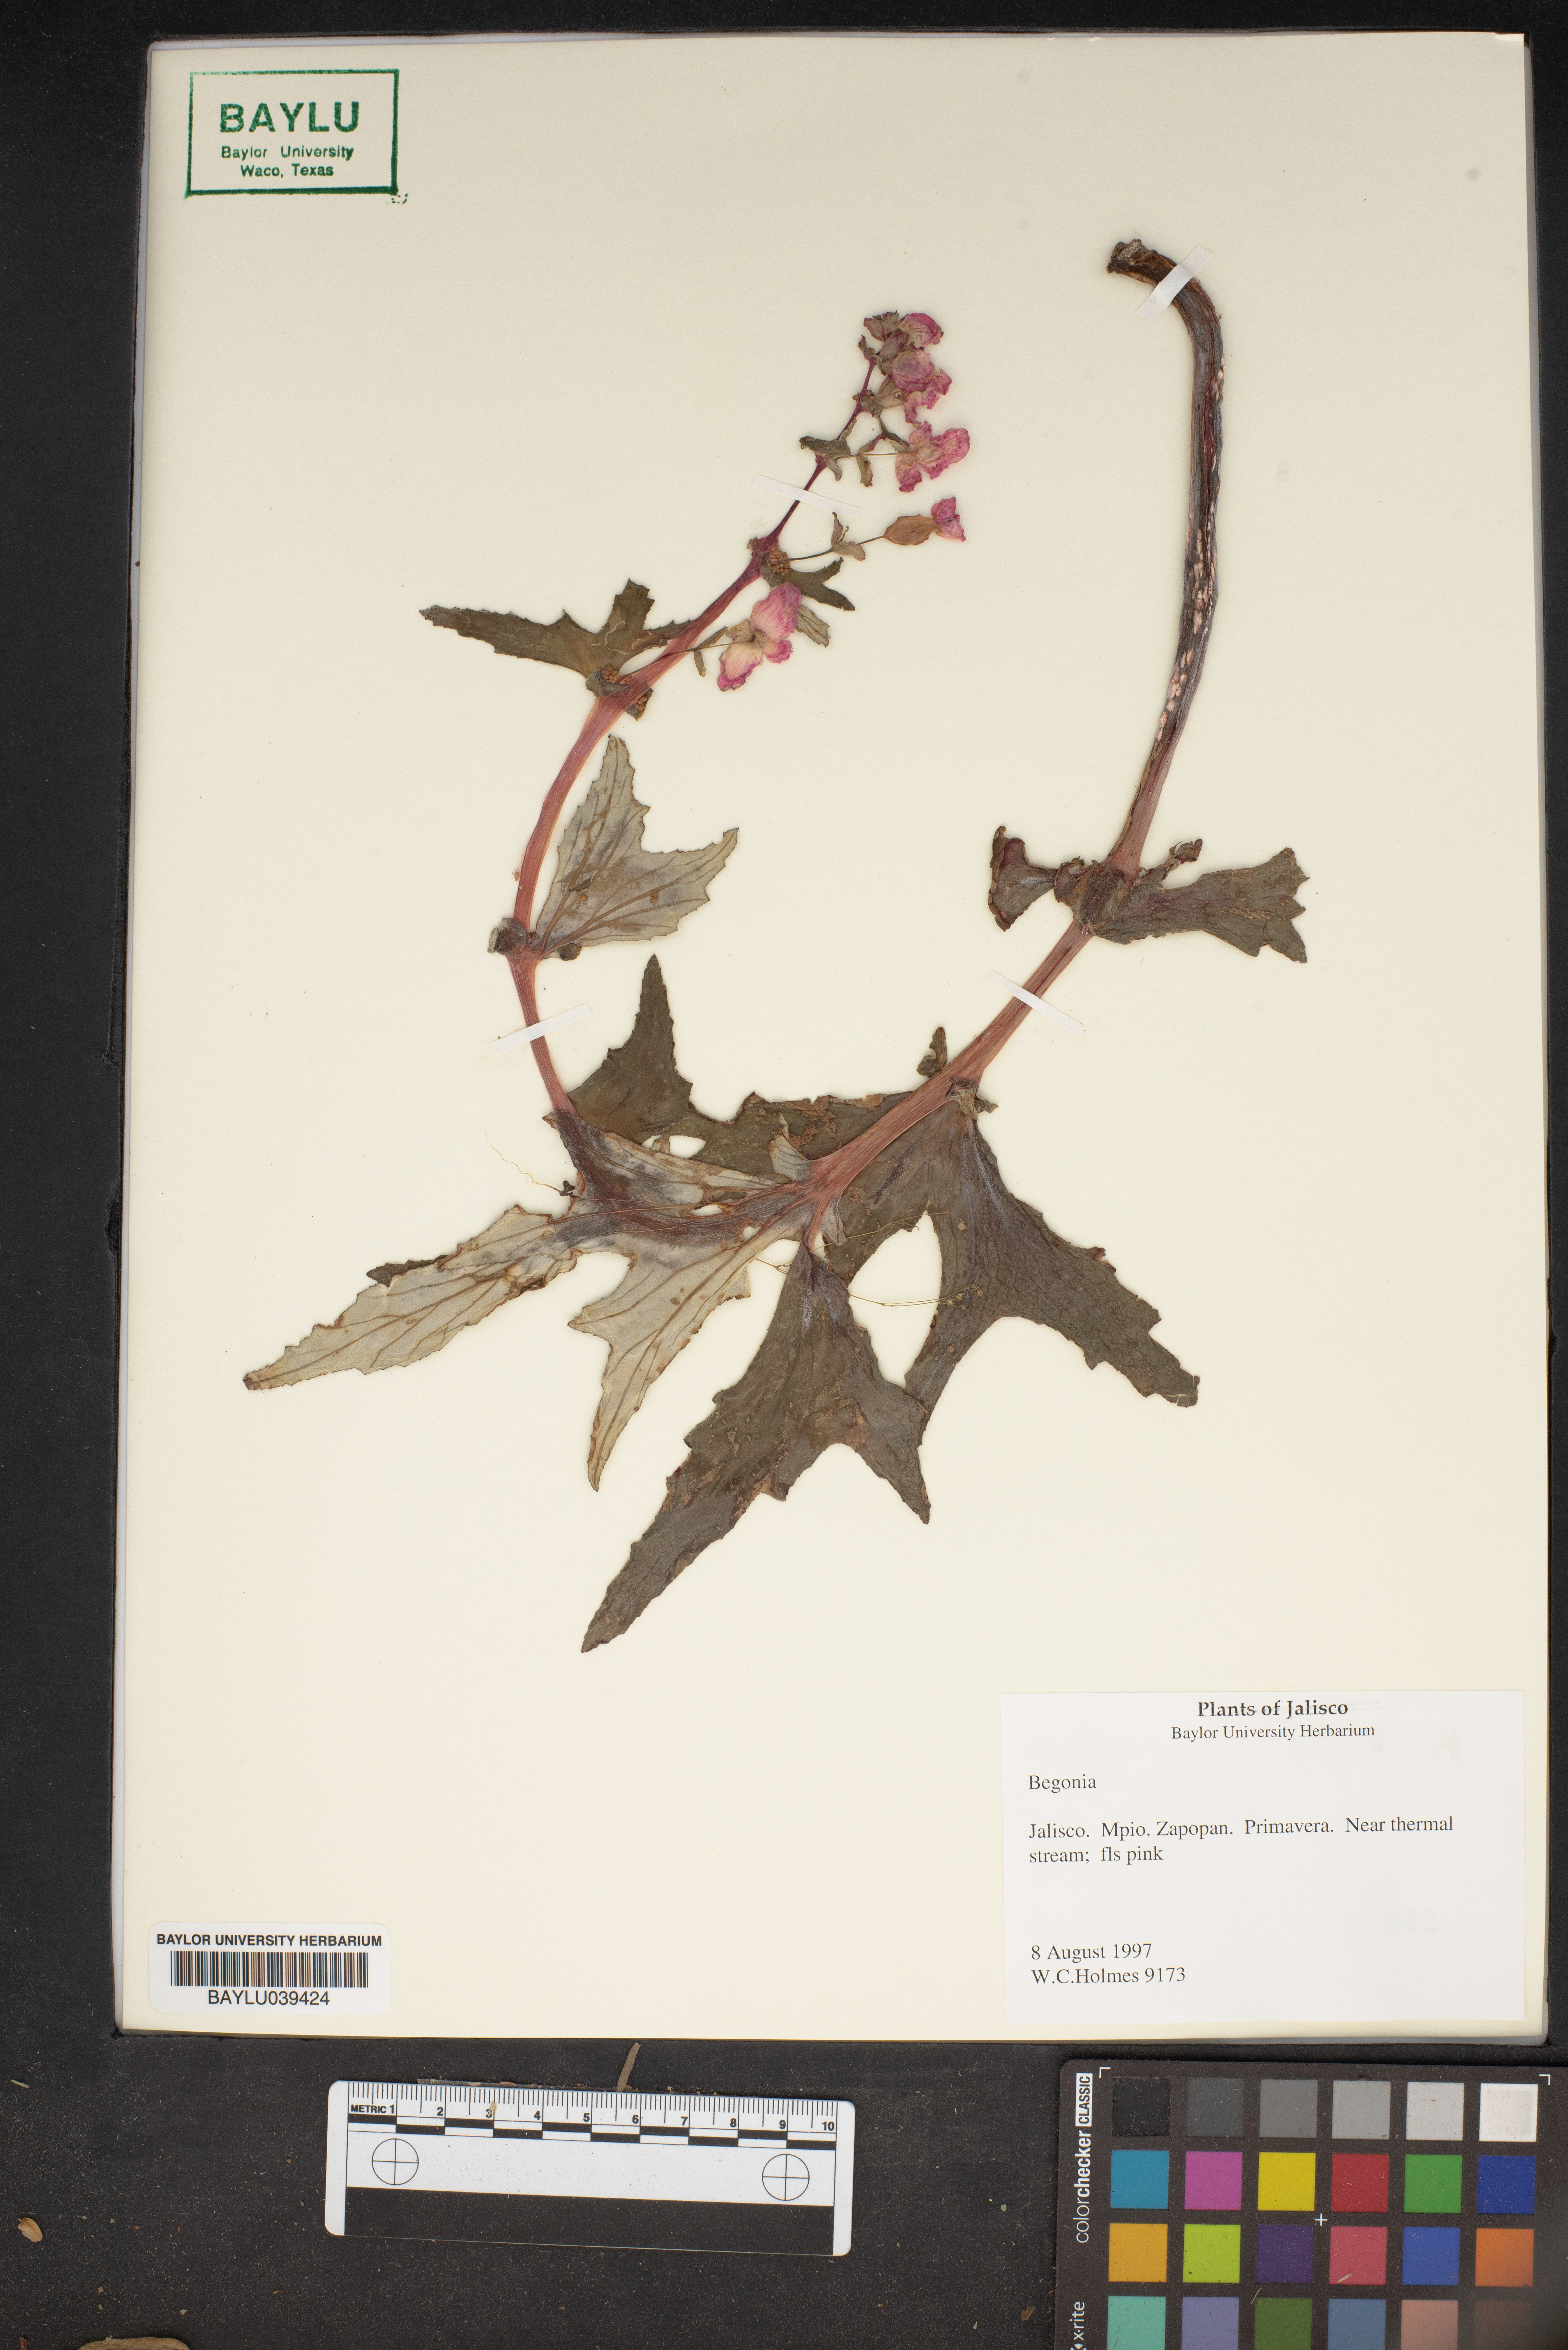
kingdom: Plantae
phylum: Tracheophyta
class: Magnoliopsida
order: Cucurbitales
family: Begoniaceae
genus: Begonia
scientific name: Begonia
